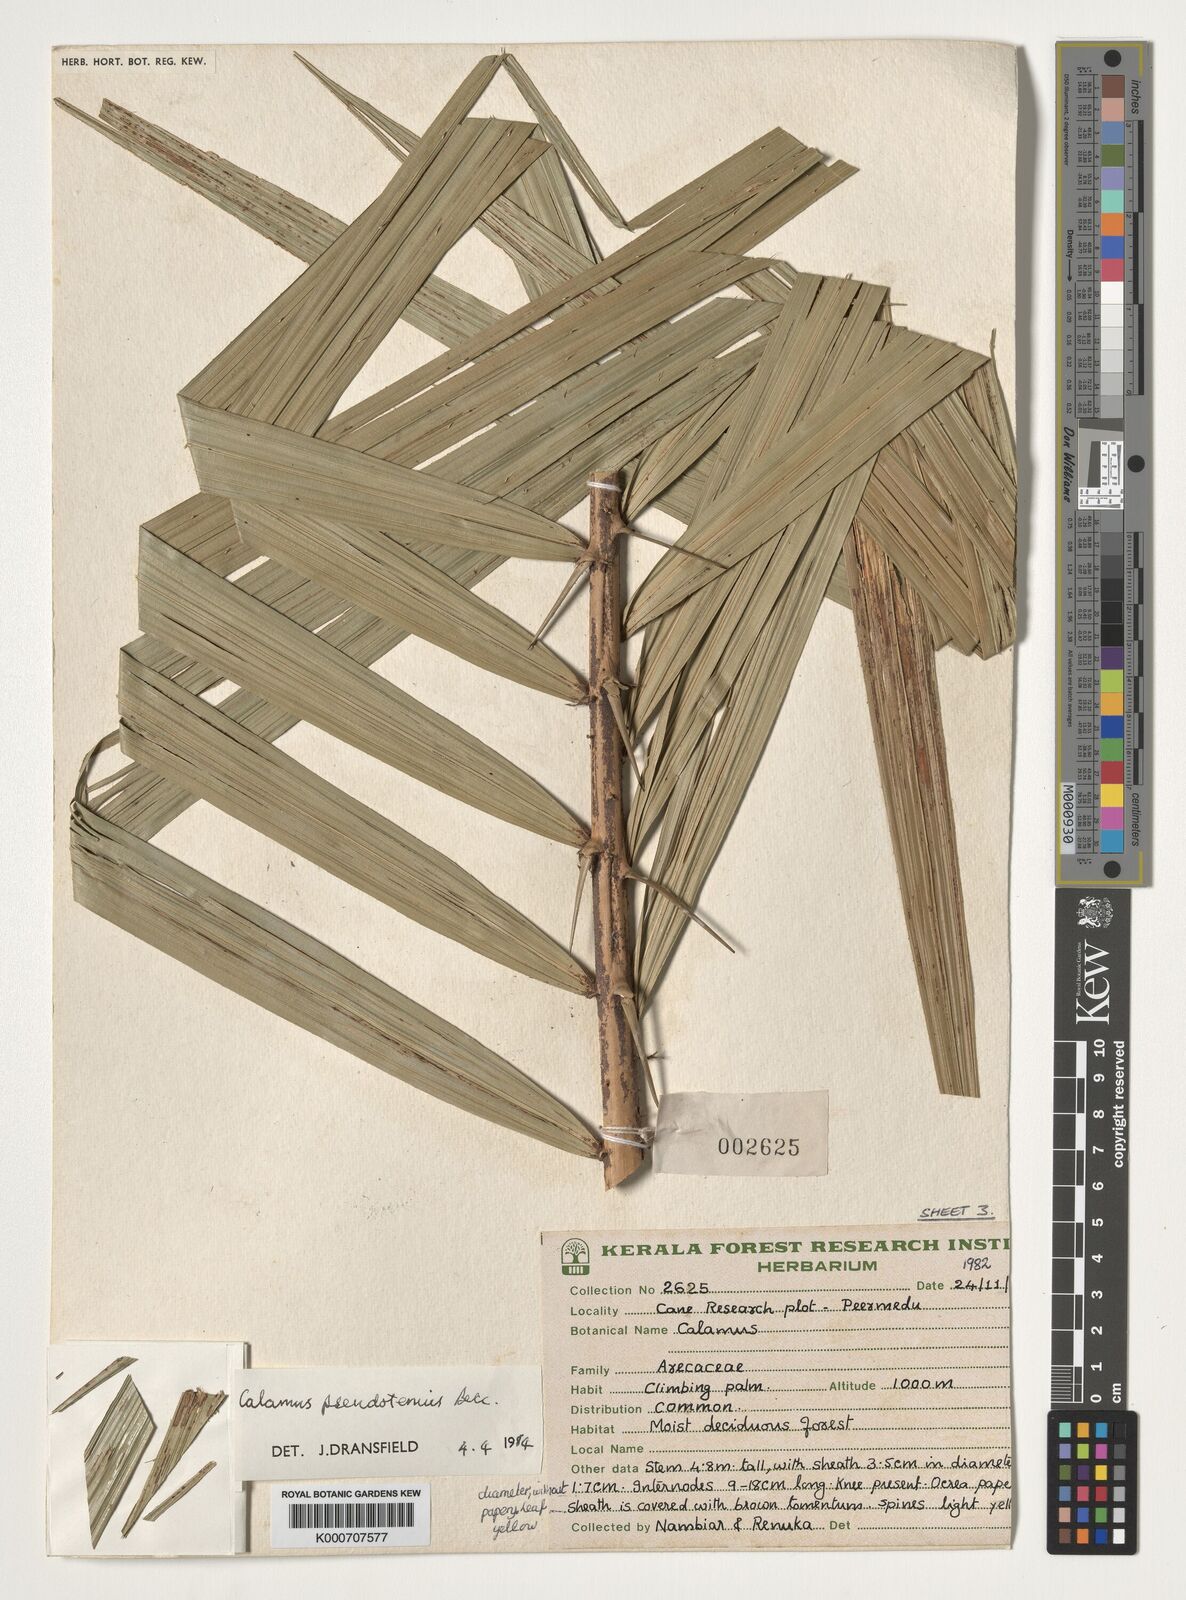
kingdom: Plantae
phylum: Tracheophyta
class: Liliopsida
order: Arecales
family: Arecaceae
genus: Calamus
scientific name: Calamus pseudotenuis
